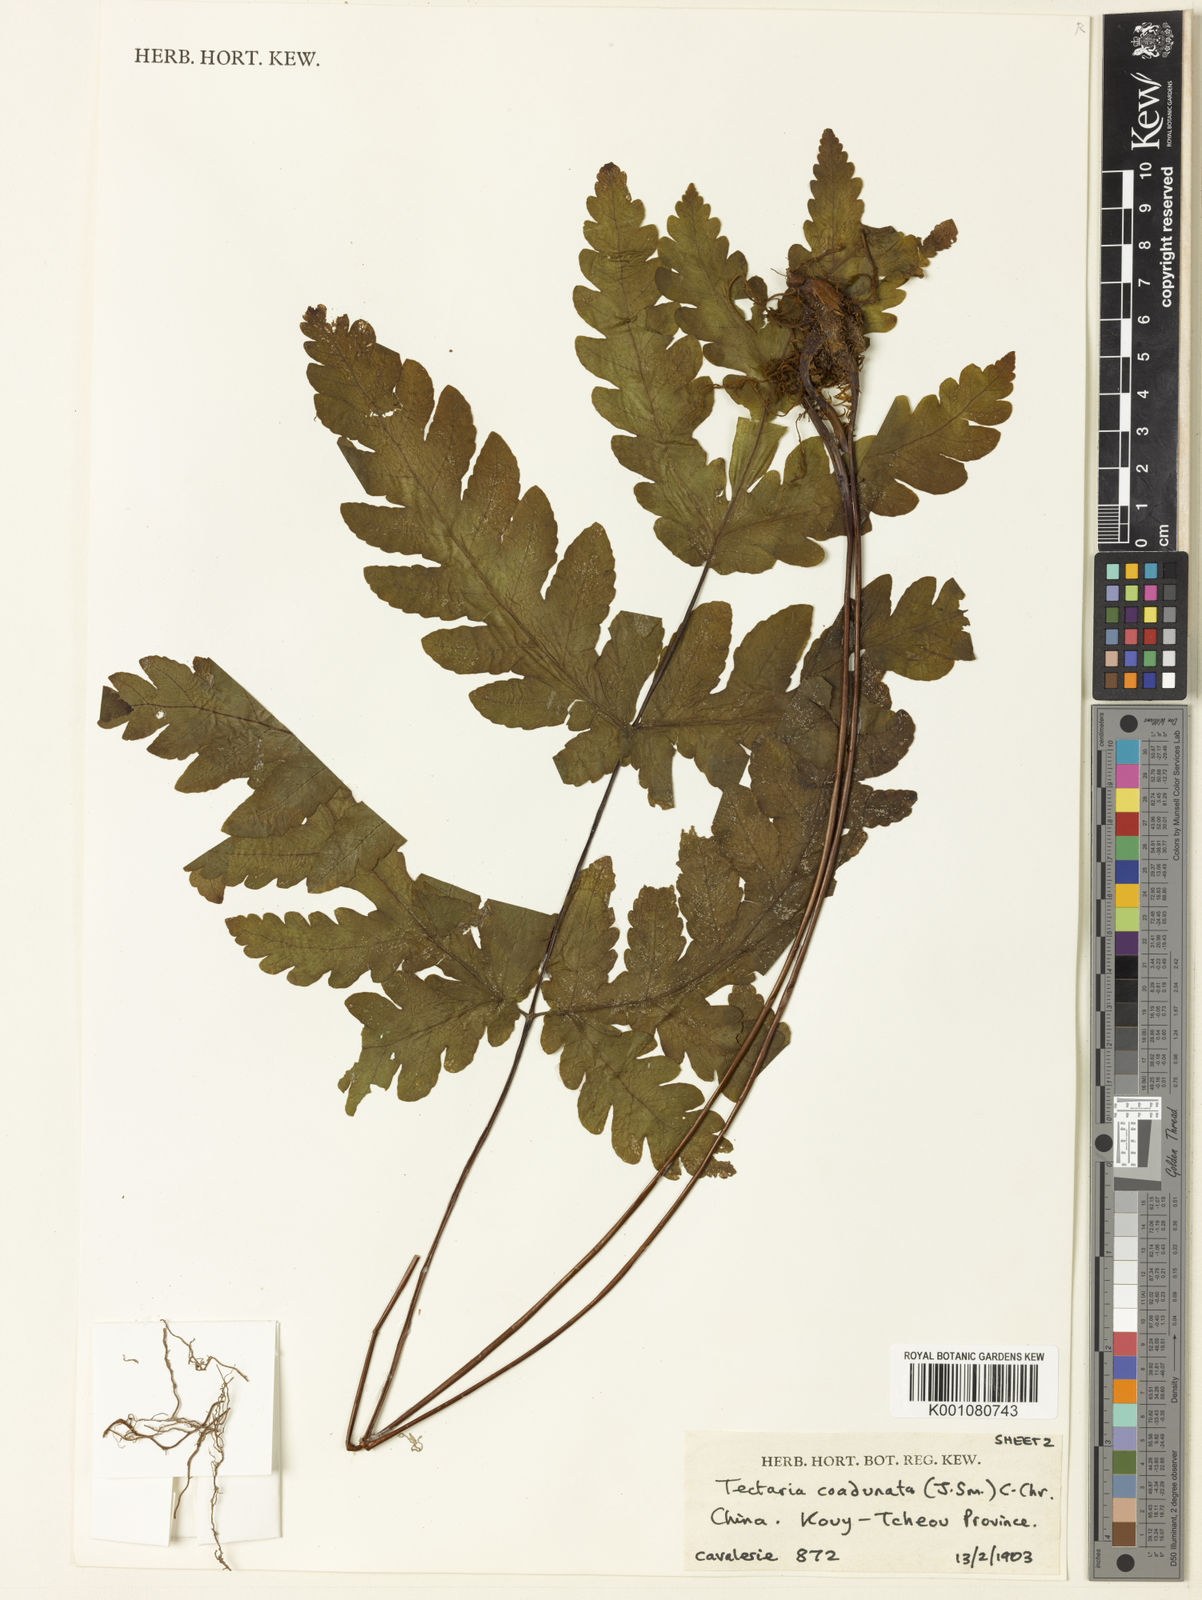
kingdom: Plantae
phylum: Tracheophyta
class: Polypodiopsida
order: Polypodiales
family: Tectariaceae
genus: Tectaria
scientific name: Tectaria coadunata
